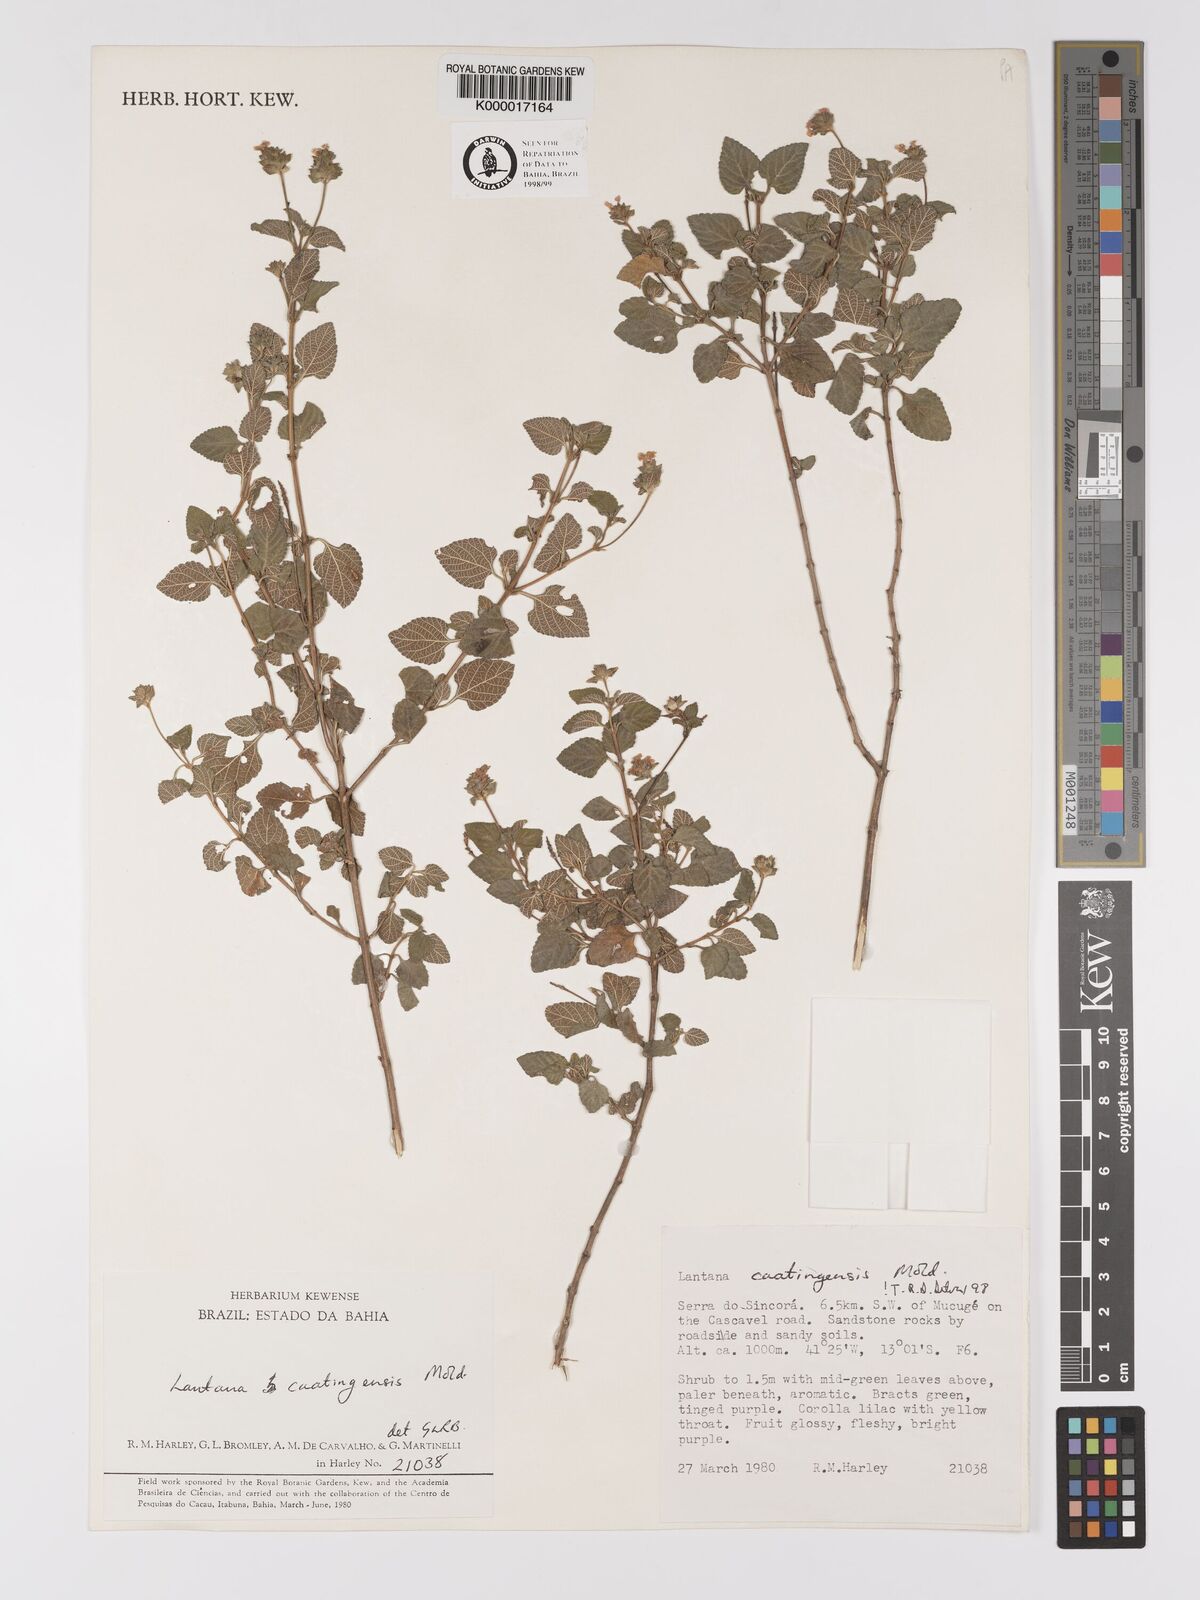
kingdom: Plantae
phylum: Tracheophyta
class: Magnoliopsida
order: Lamiales
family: Verbenaceae
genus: Lantana
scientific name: Lantana caatingensis
